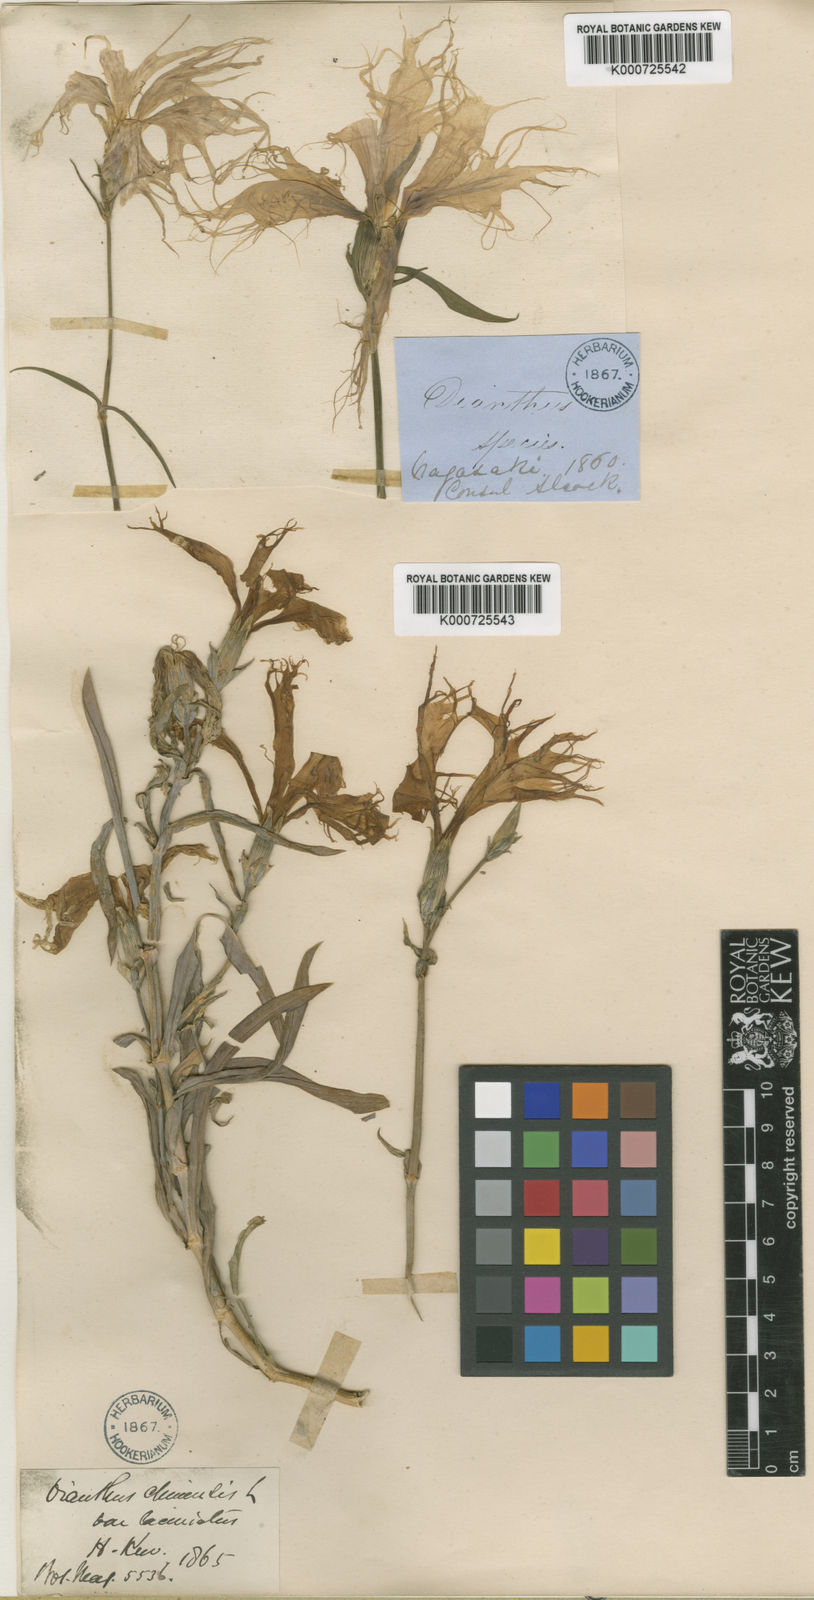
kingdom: Plantae
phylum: Tracheophyta
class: Magnoliopsida
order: Caryophyllales
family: Caryophyllaceae
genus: Dianthus
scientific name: Dianthus chinensis
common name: Rainbow pink
